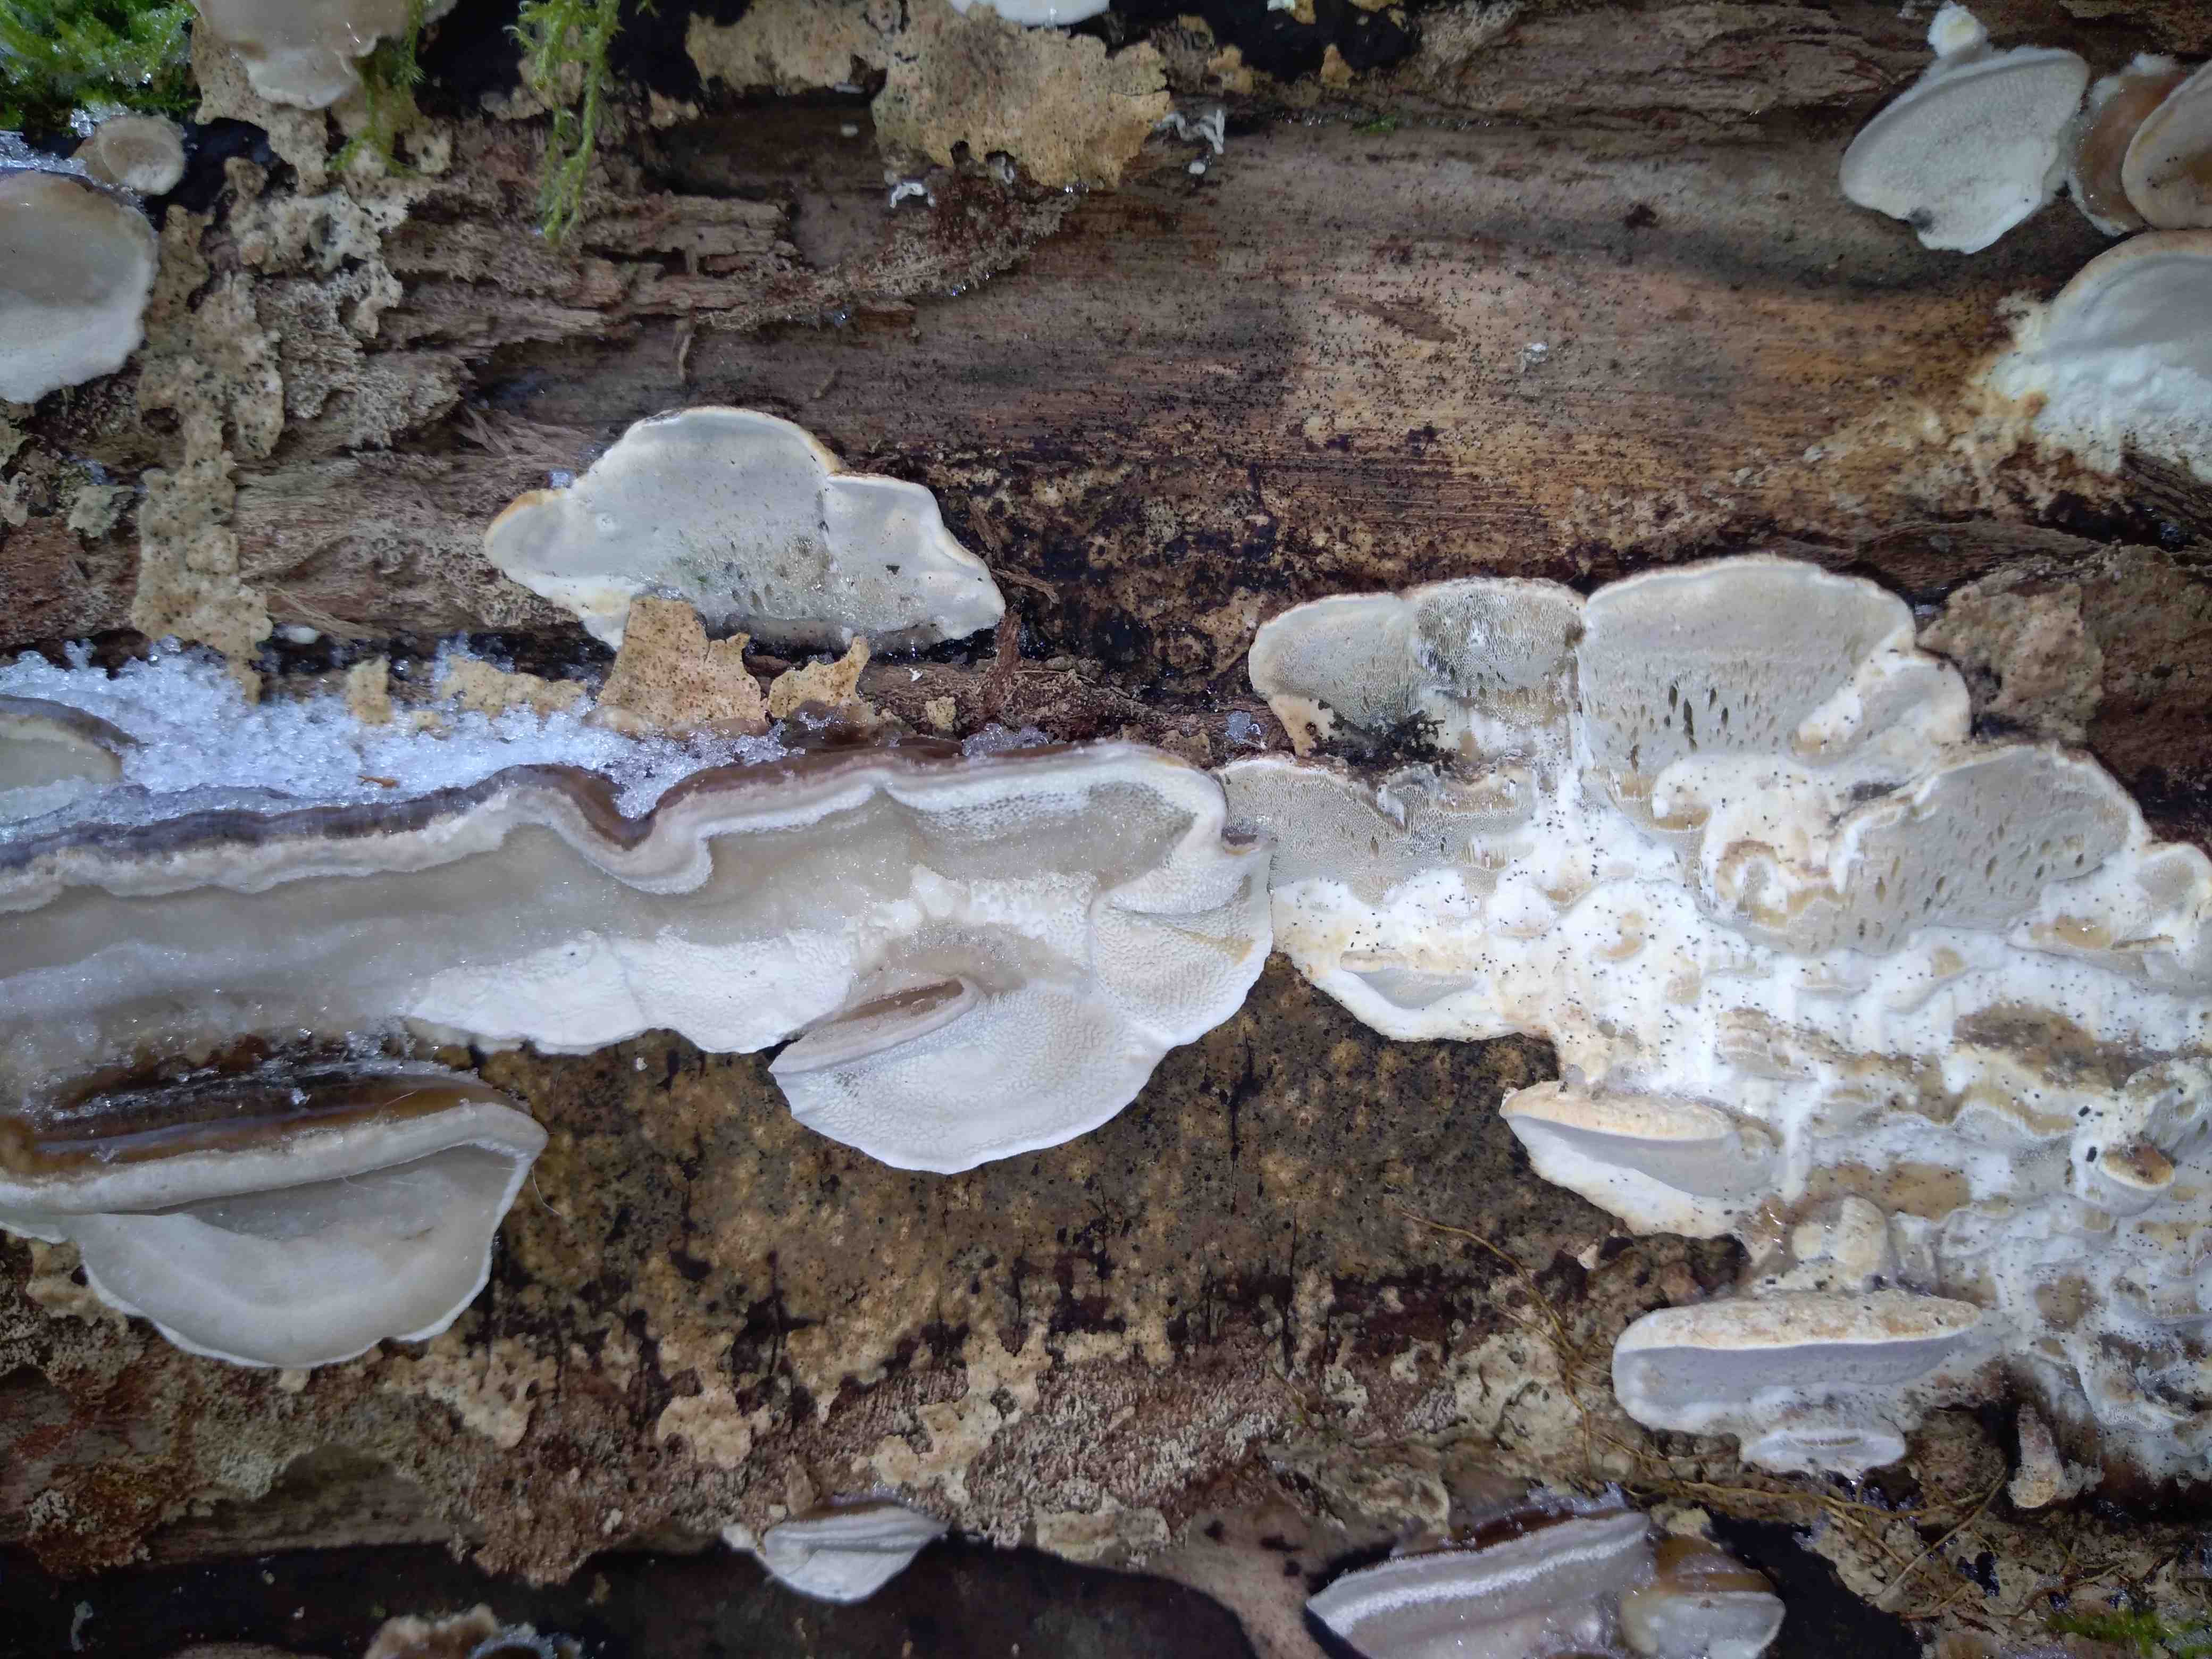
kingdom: Fungi
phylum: Basidiomycota
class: Agaricomycetes
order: Polyporales
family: Phanerochaetaceae
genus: Bjerkandera
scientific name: Bjerkandera adusta
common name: sveden sodporesvamp
